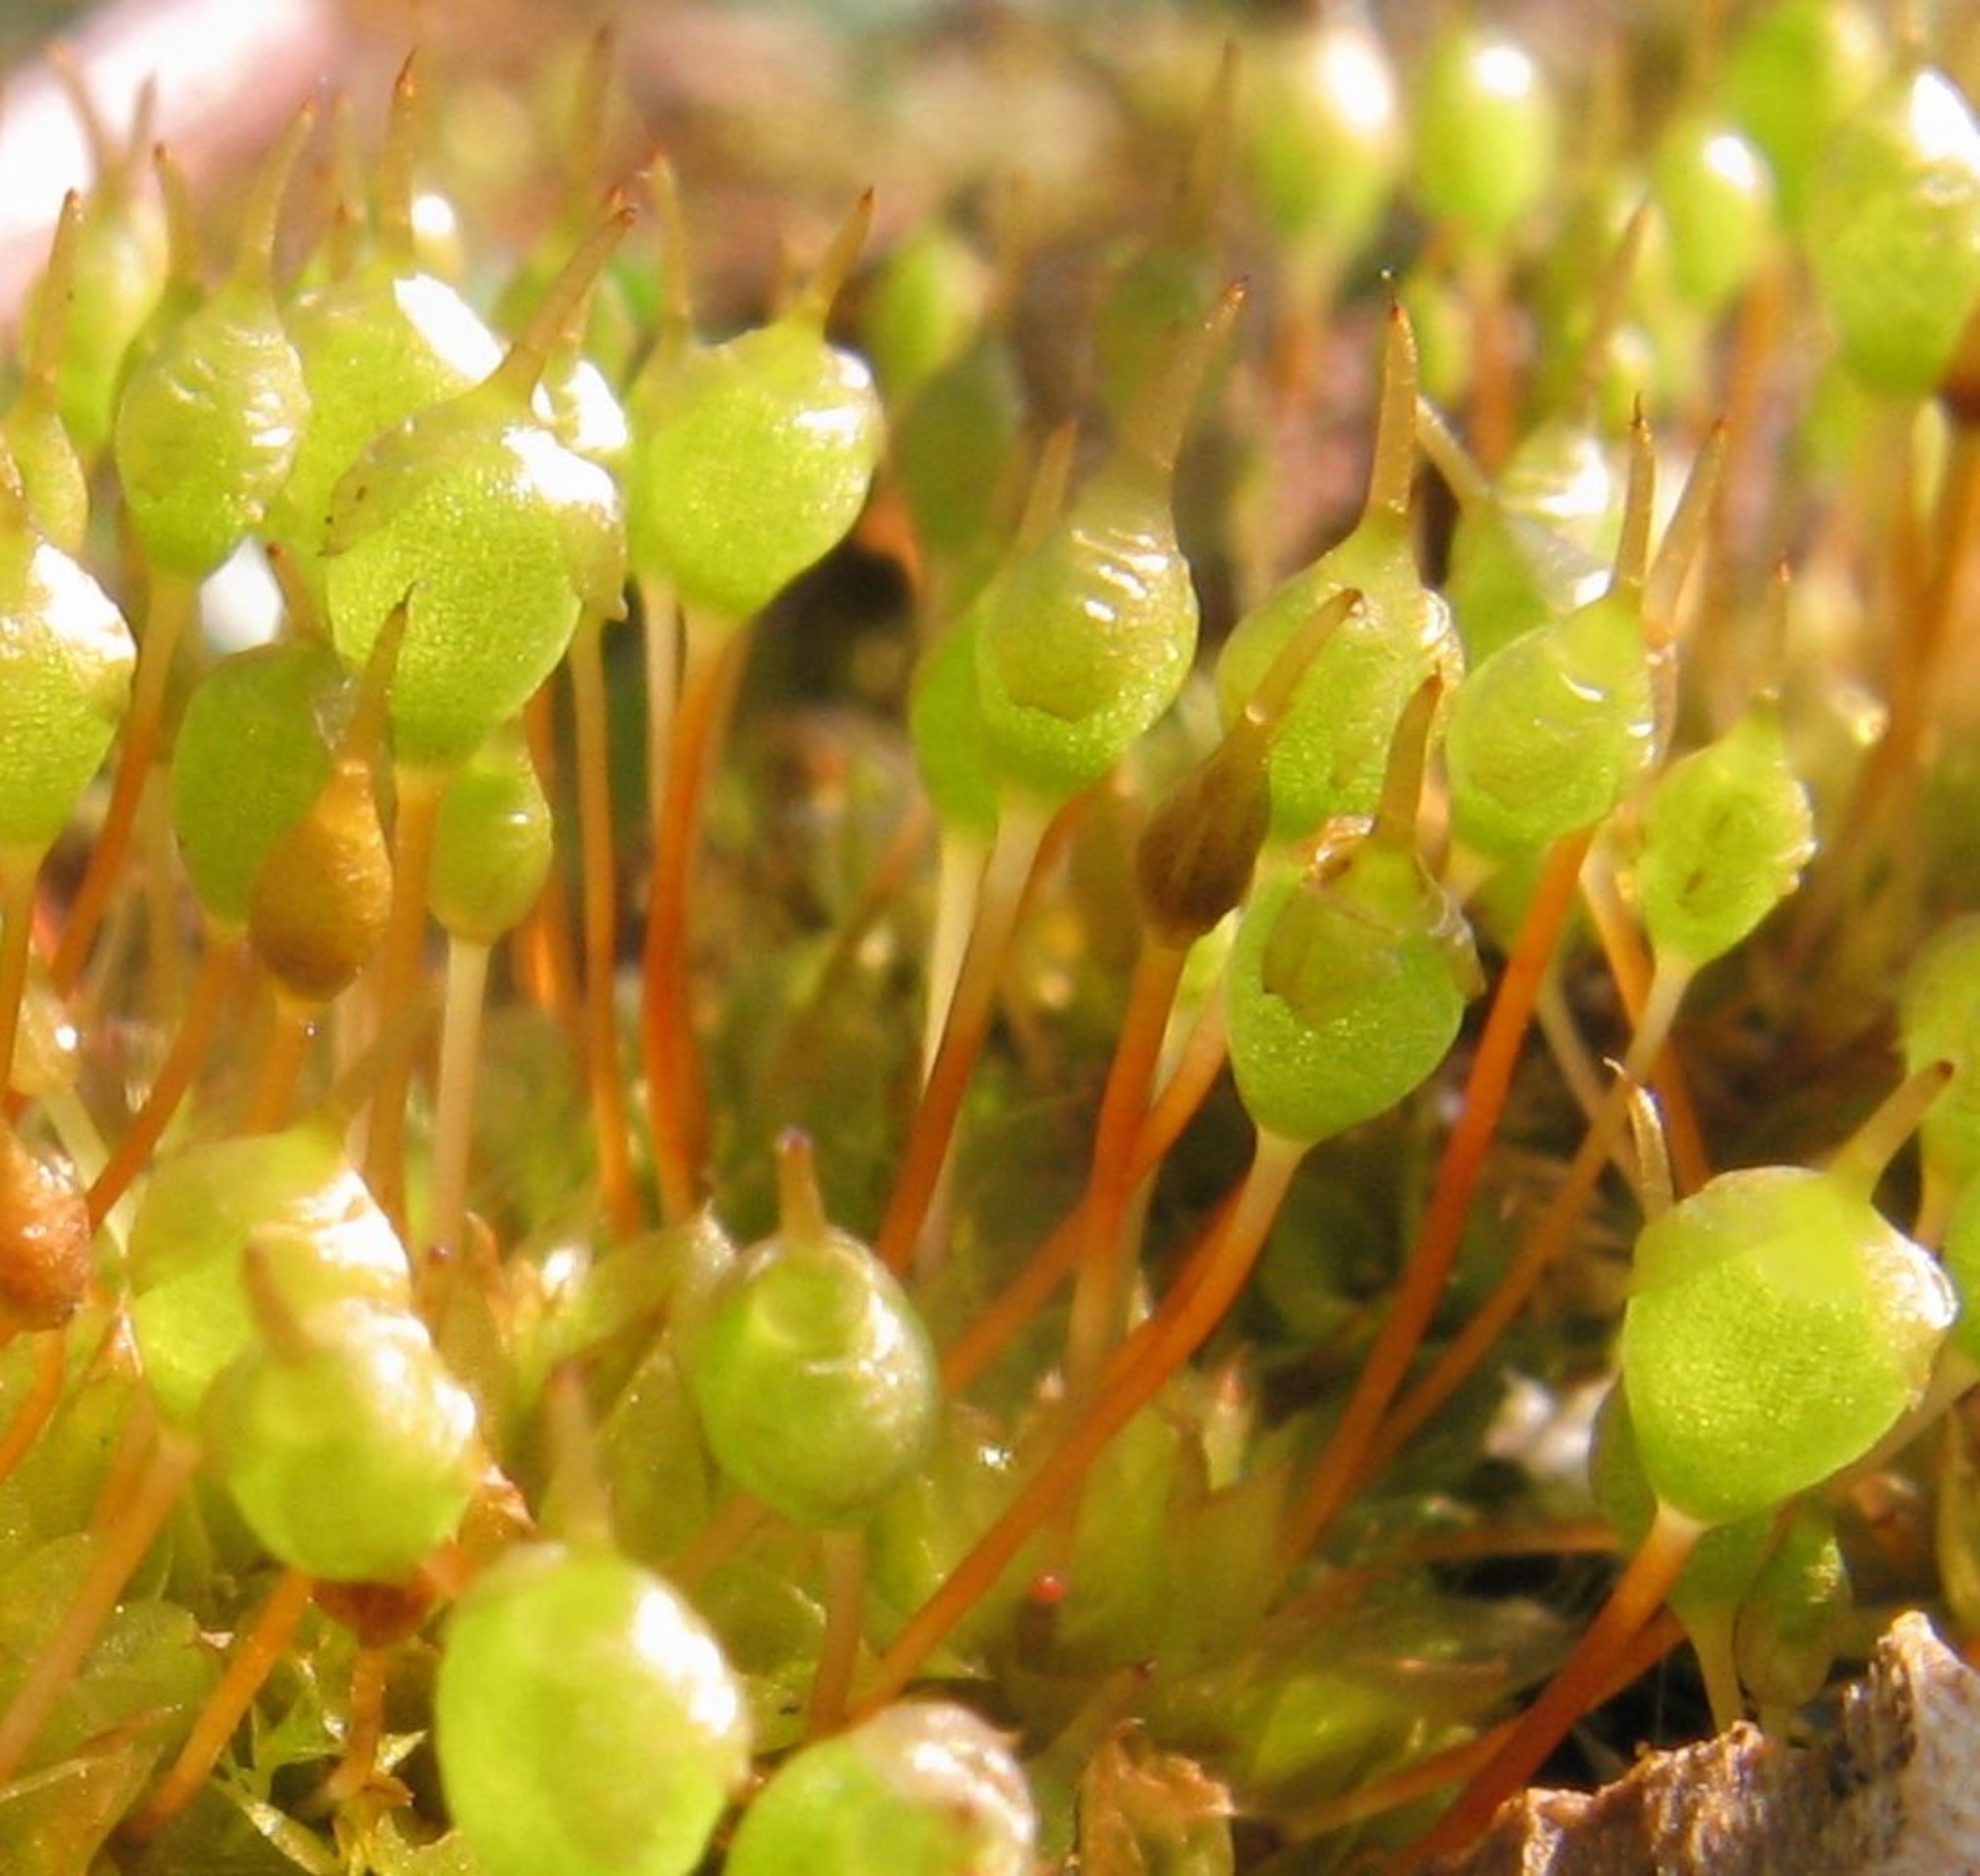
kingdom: Plantae
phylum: Bryophyta
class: Bryopsida
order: Funariales
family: Funariaceae
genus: Physcomitrium
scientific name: Physcomitrium pyriforme
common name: Almindelig pærekapsel
